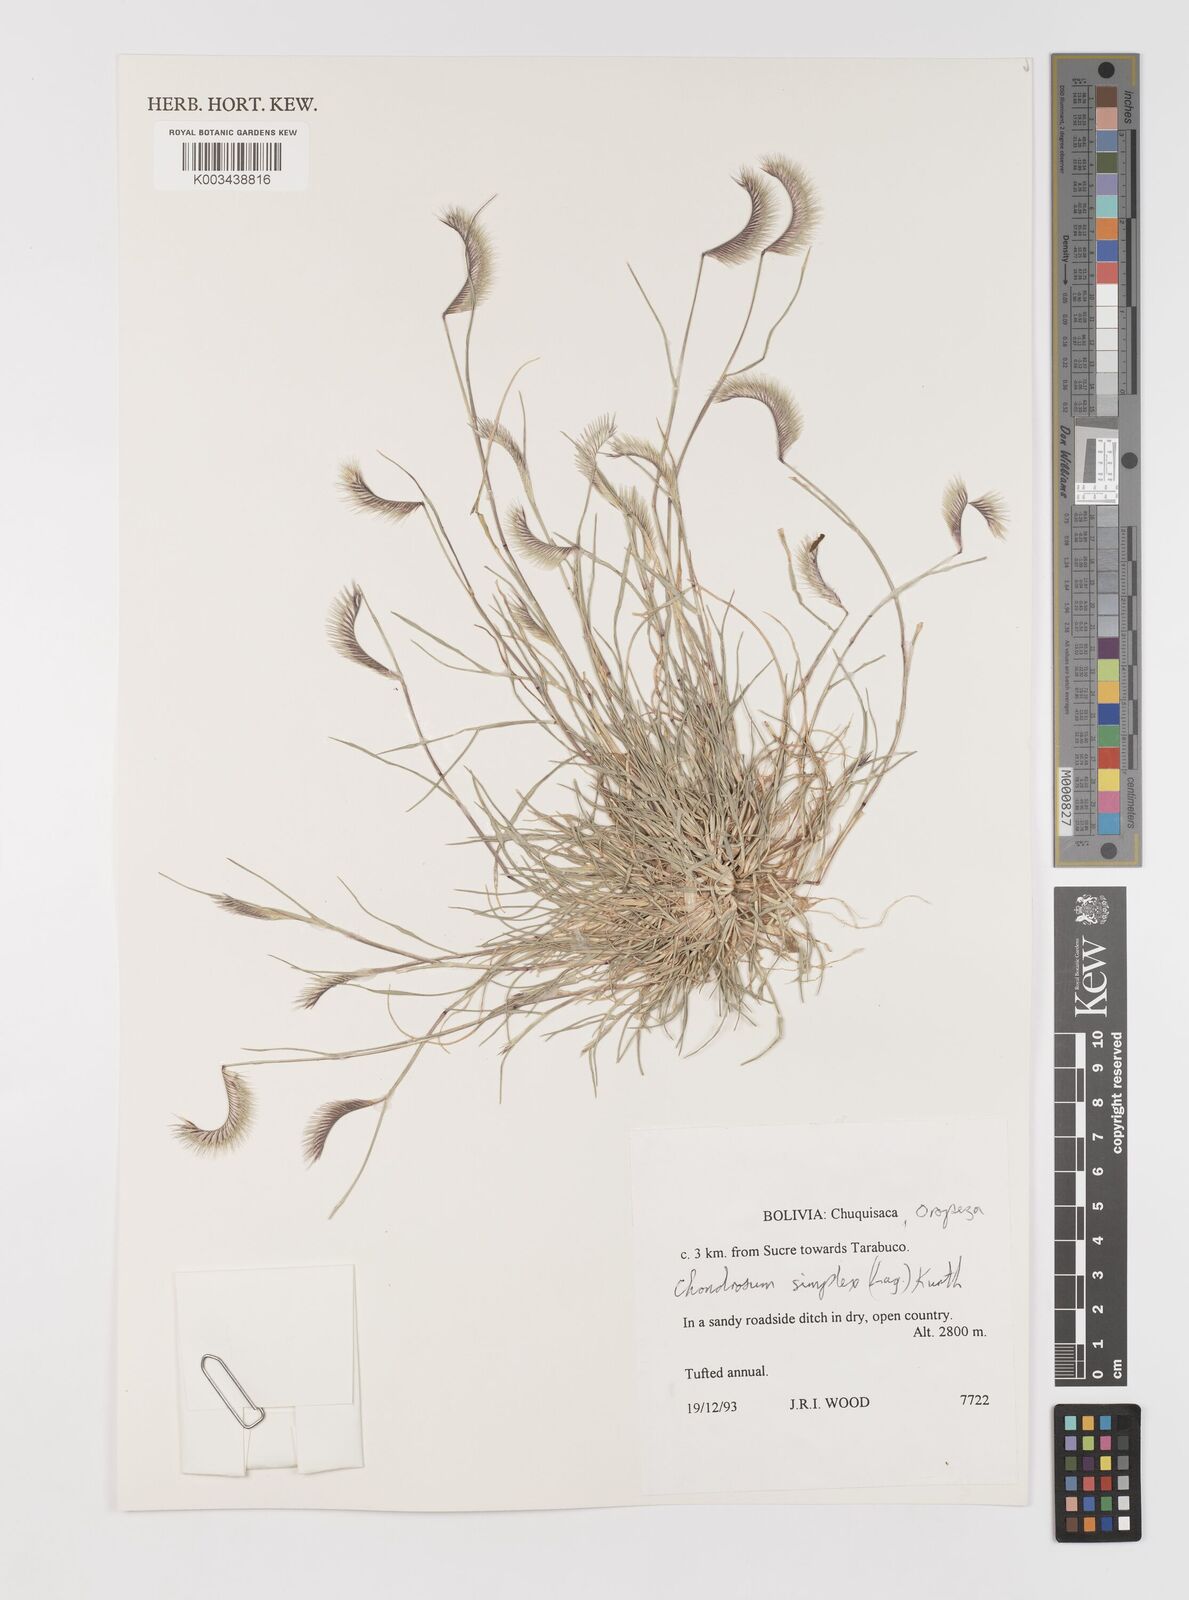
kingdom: Plantae
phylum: Tracheophyta
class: Liliopsida
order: Poales
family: Poaceae
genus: Bouteloua
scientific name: Bouteloua simplex
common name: Mat grama
